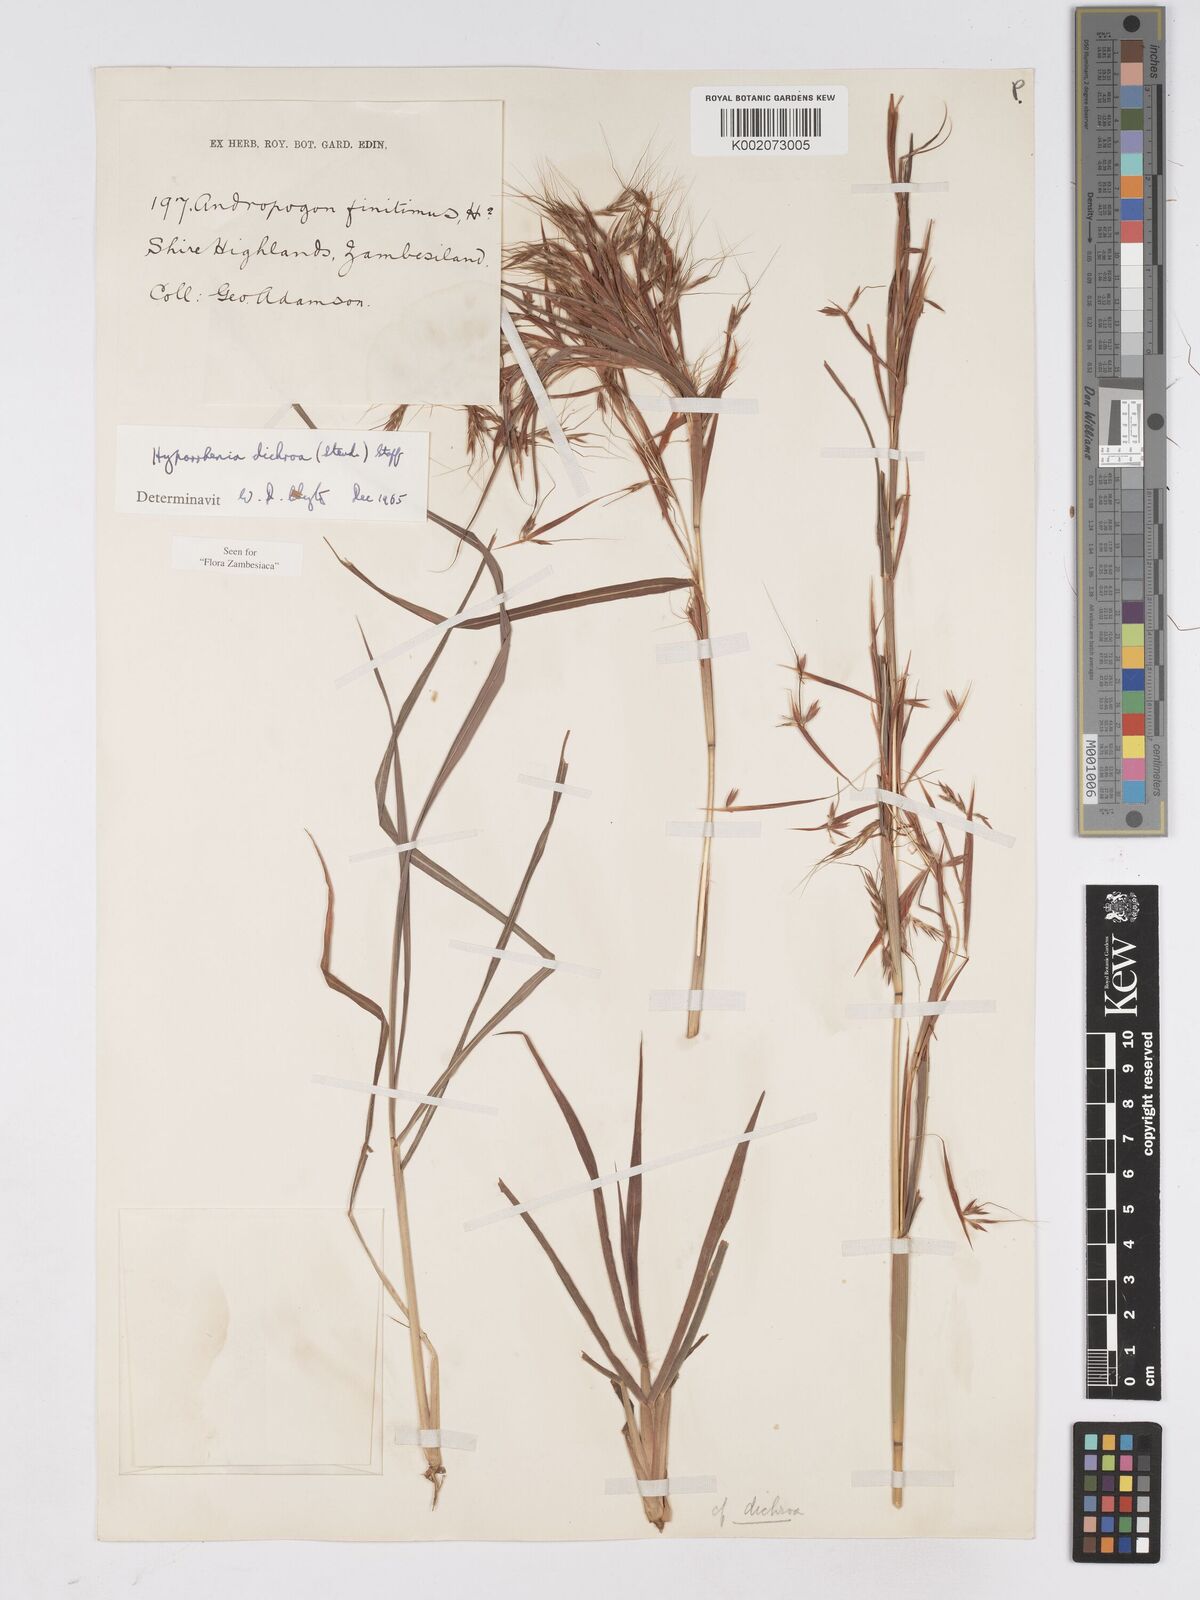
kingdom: Plantae
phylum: Tracheophyta
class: Liliopsida
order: Poales
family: Poaceae
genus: Hyparrhenia
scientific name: Hyparrhenia dichroa
